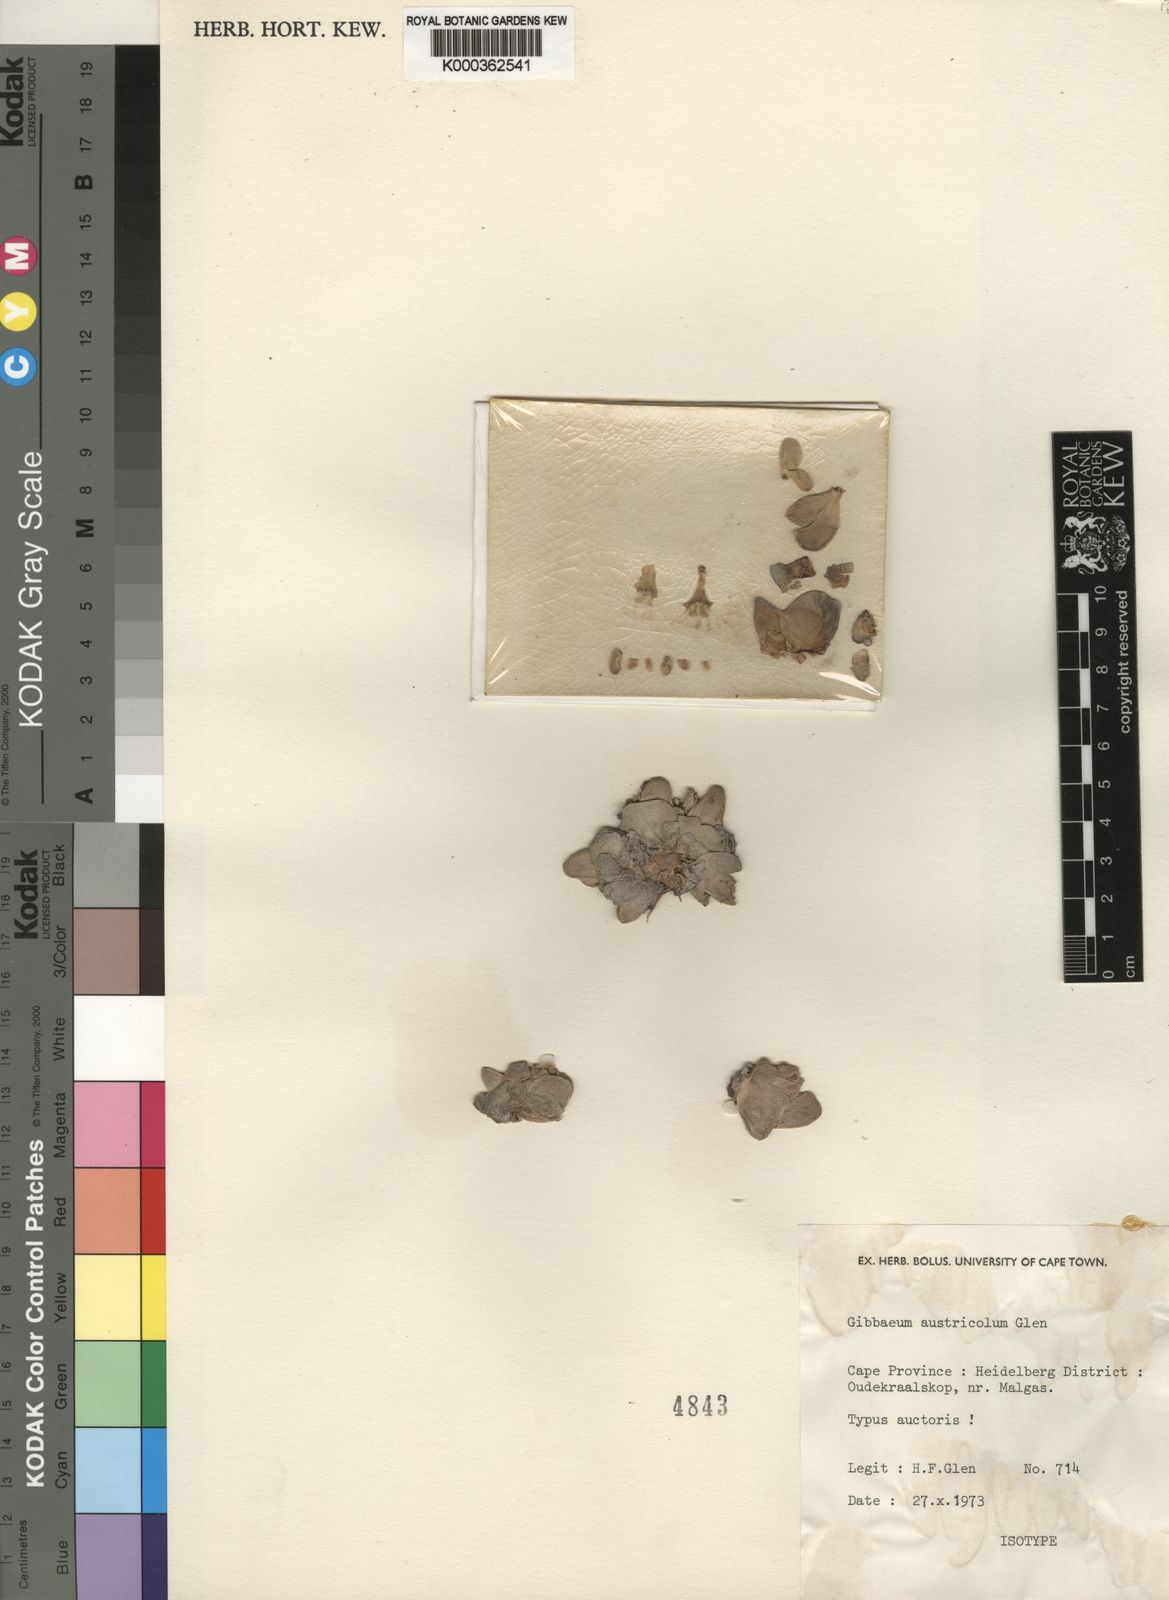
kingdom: Plantae
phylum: Tracheophyta
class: Magnoliopsida
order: Caryophyllales
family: Aizoaceae
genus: Gibbaeum
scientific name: Gibbaeum
